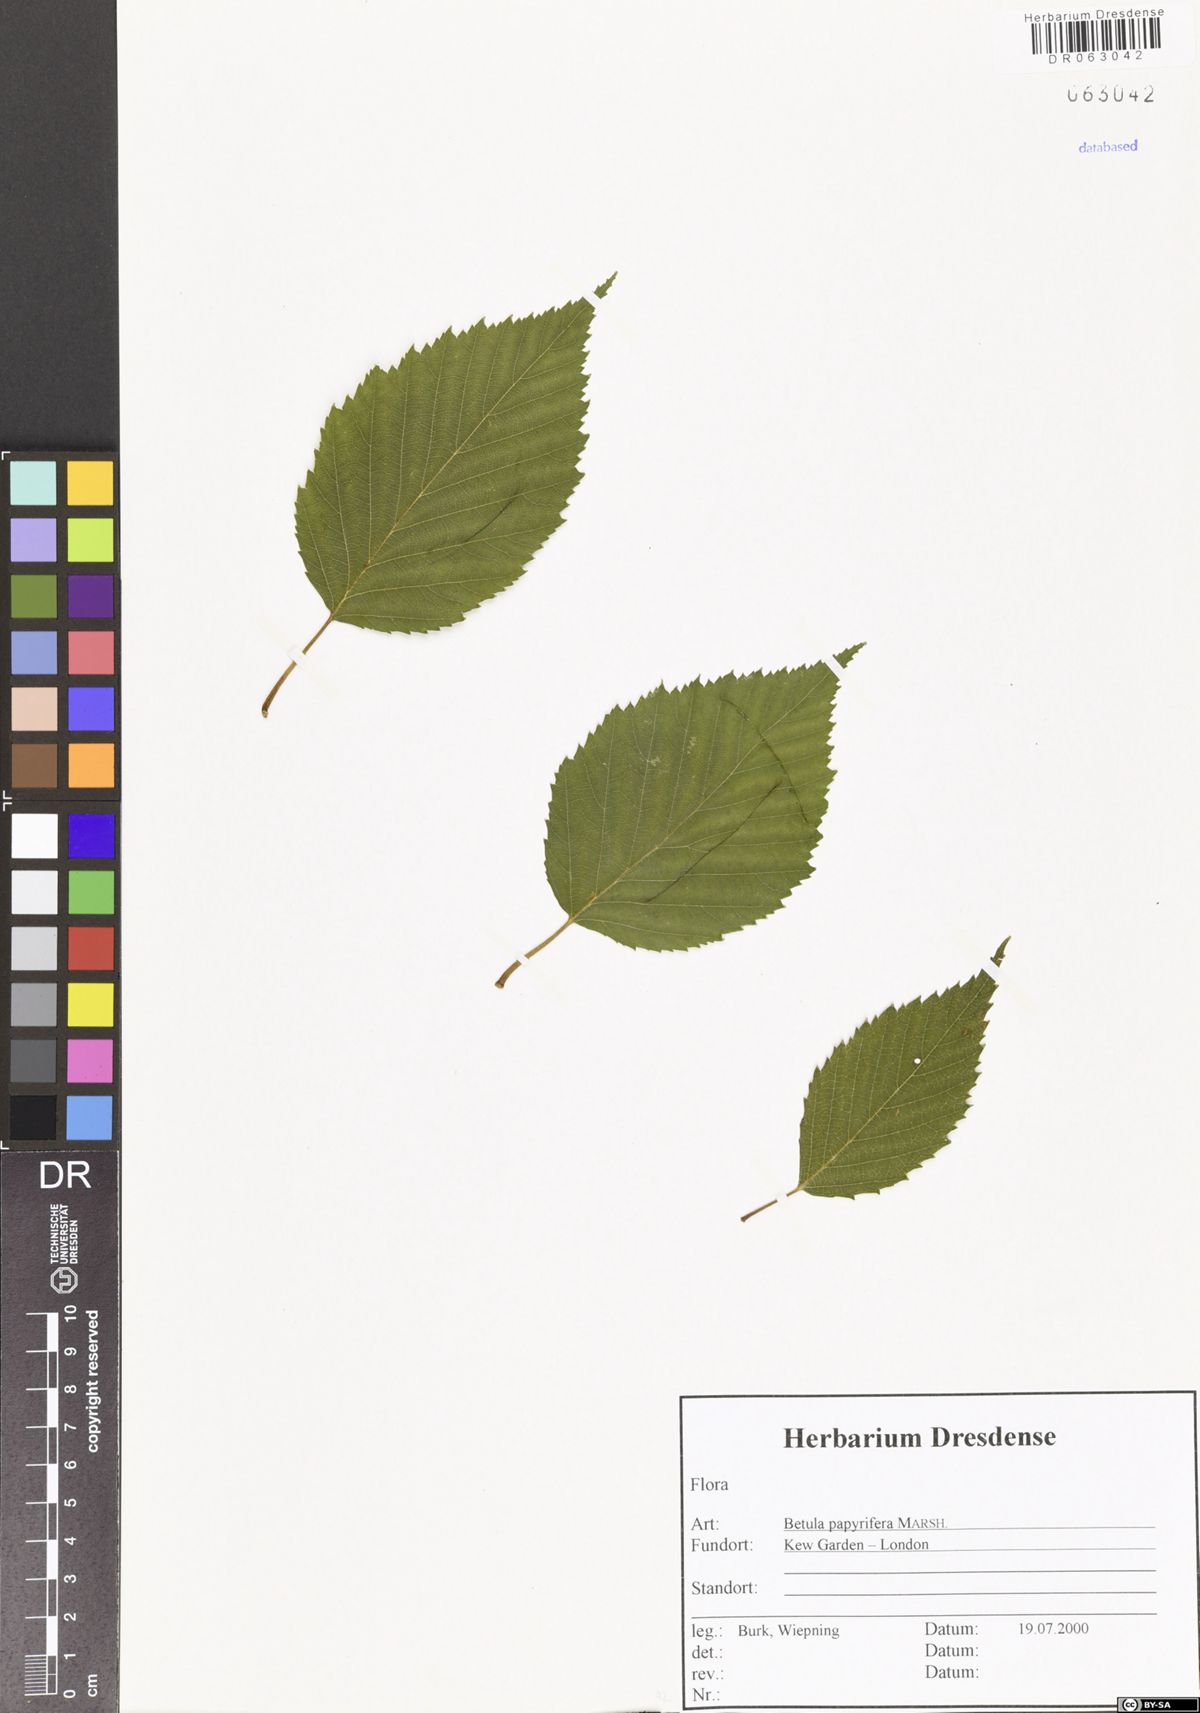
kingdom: Plantae
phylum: Tracheophyta
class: Magnoliopsida
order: Fagales
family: Betulaceae
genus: Betula
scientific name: Betula papyrifera
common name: Paper birch
